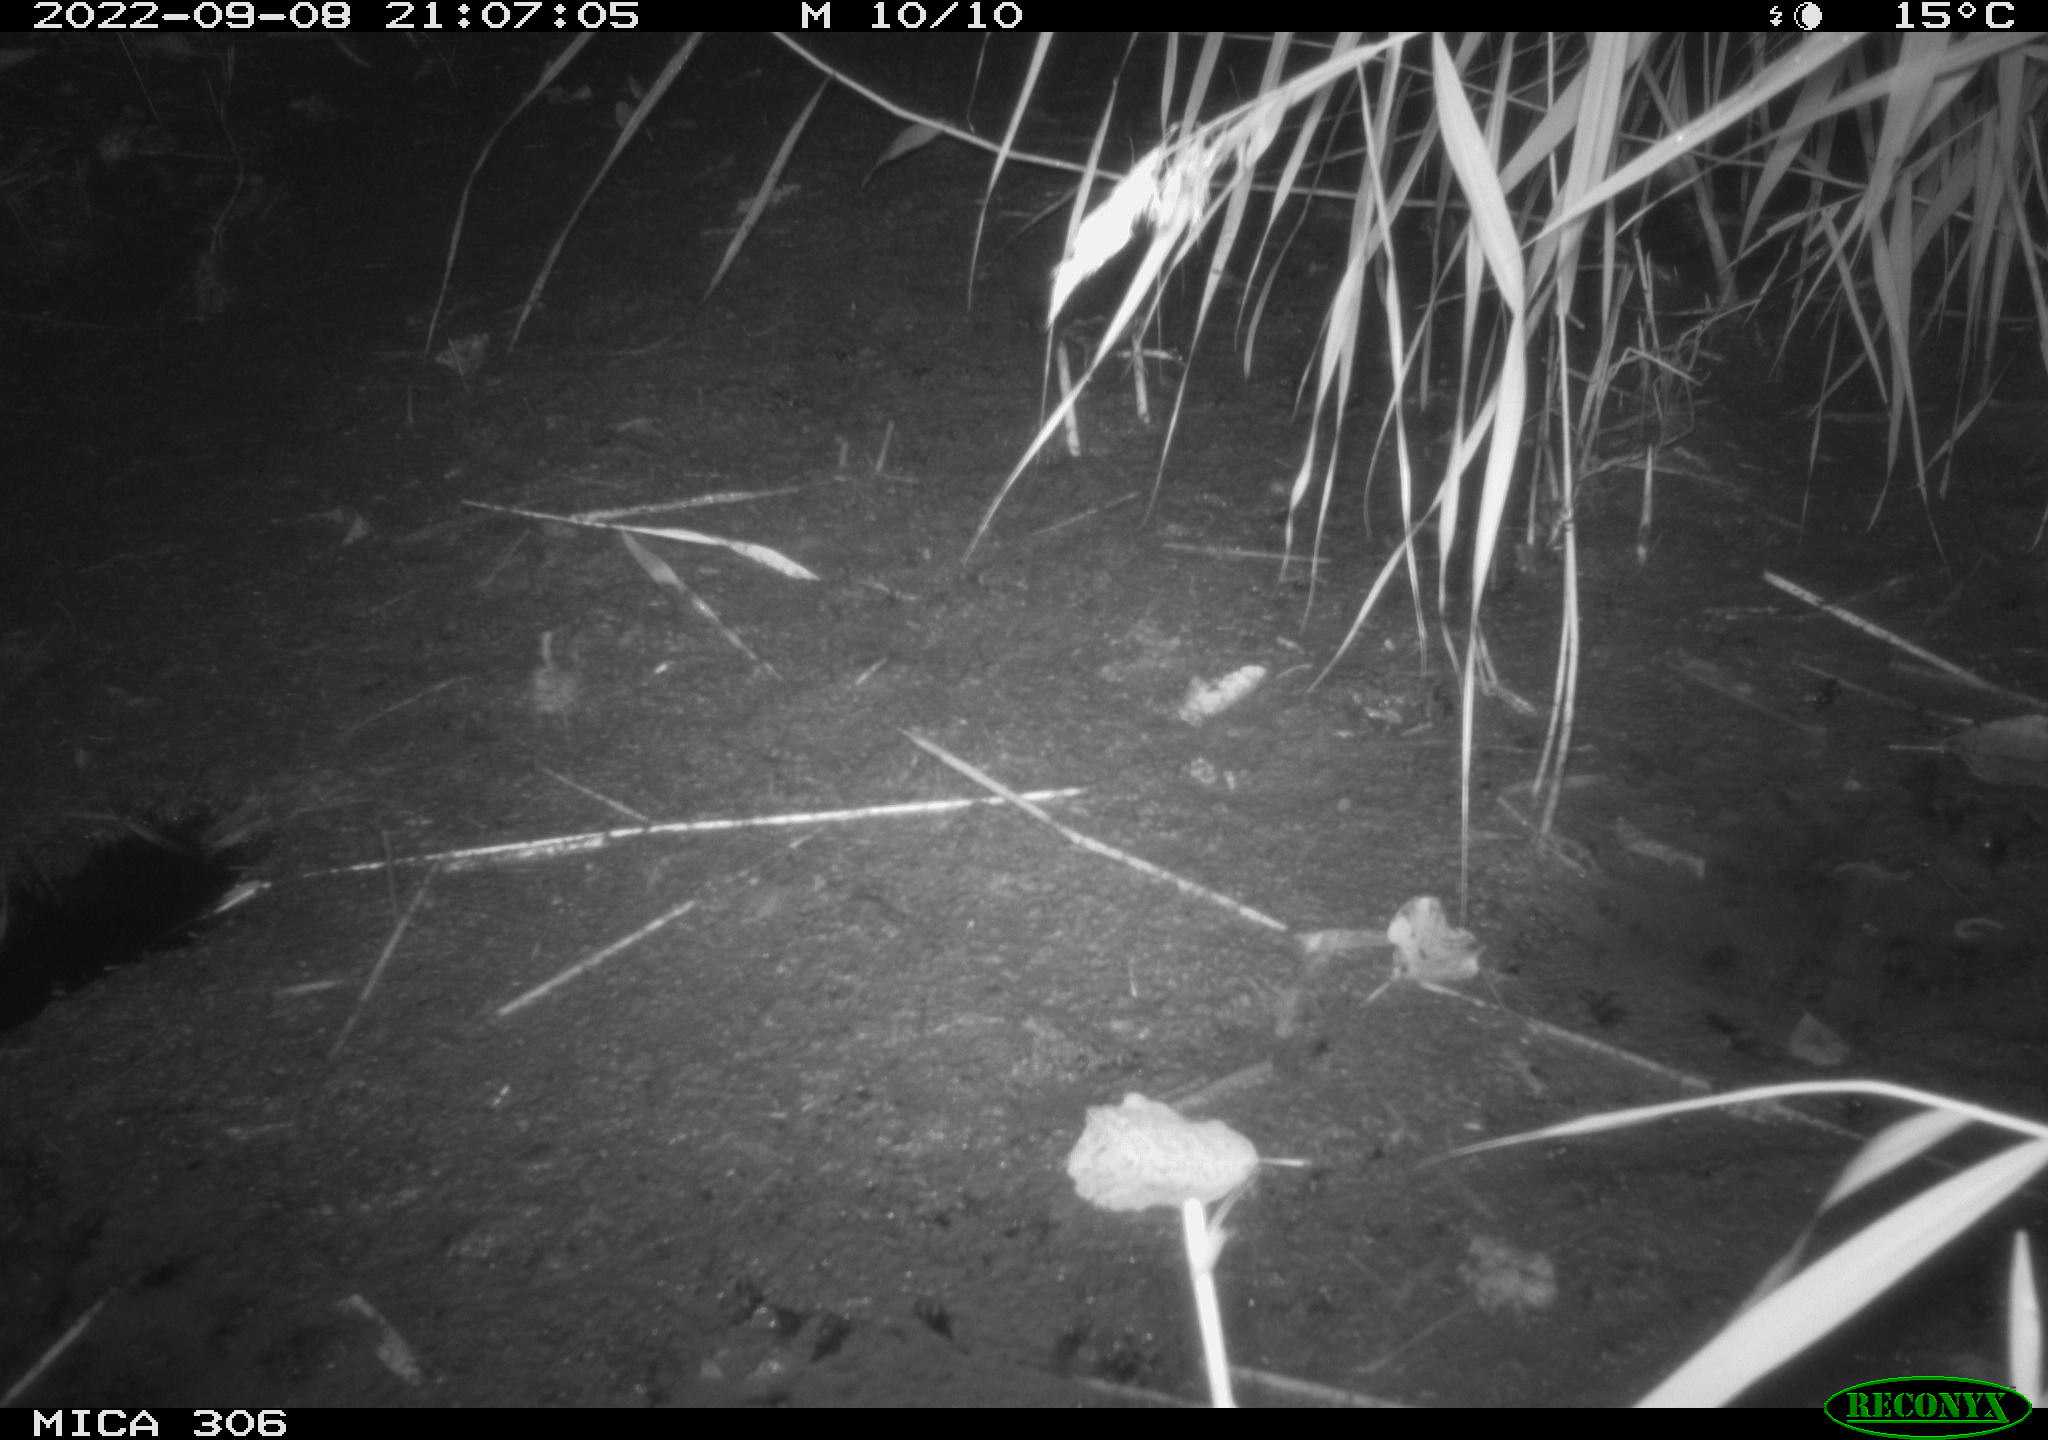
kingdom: Animalia
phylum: Chordata
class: Mammalia
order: Rodentia
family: Muridae
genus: Rattus
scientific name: Rattus norvegicus
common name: Brown rat
